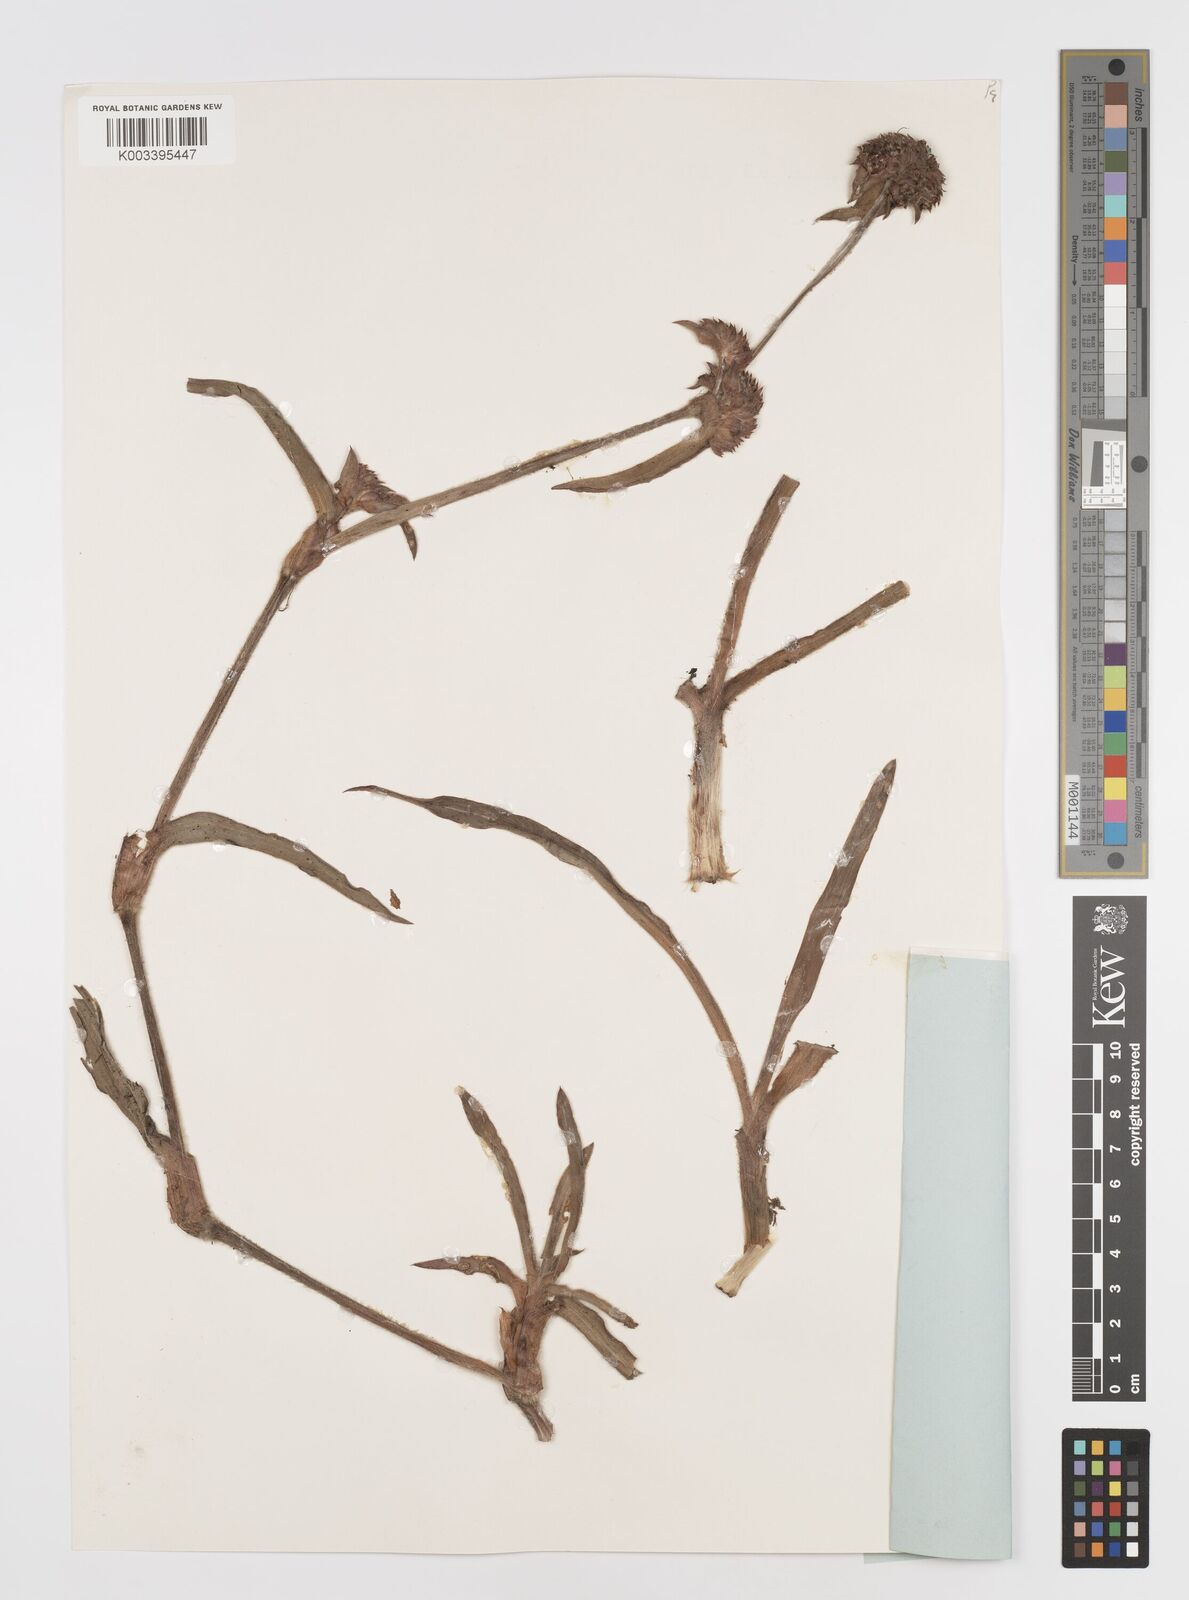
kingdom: Plantae
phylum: Tracheophyta
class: Liliopsida
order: Commelinales
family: Commelinaceae
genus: Cyanotis
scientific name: Cyanotis longifolia
